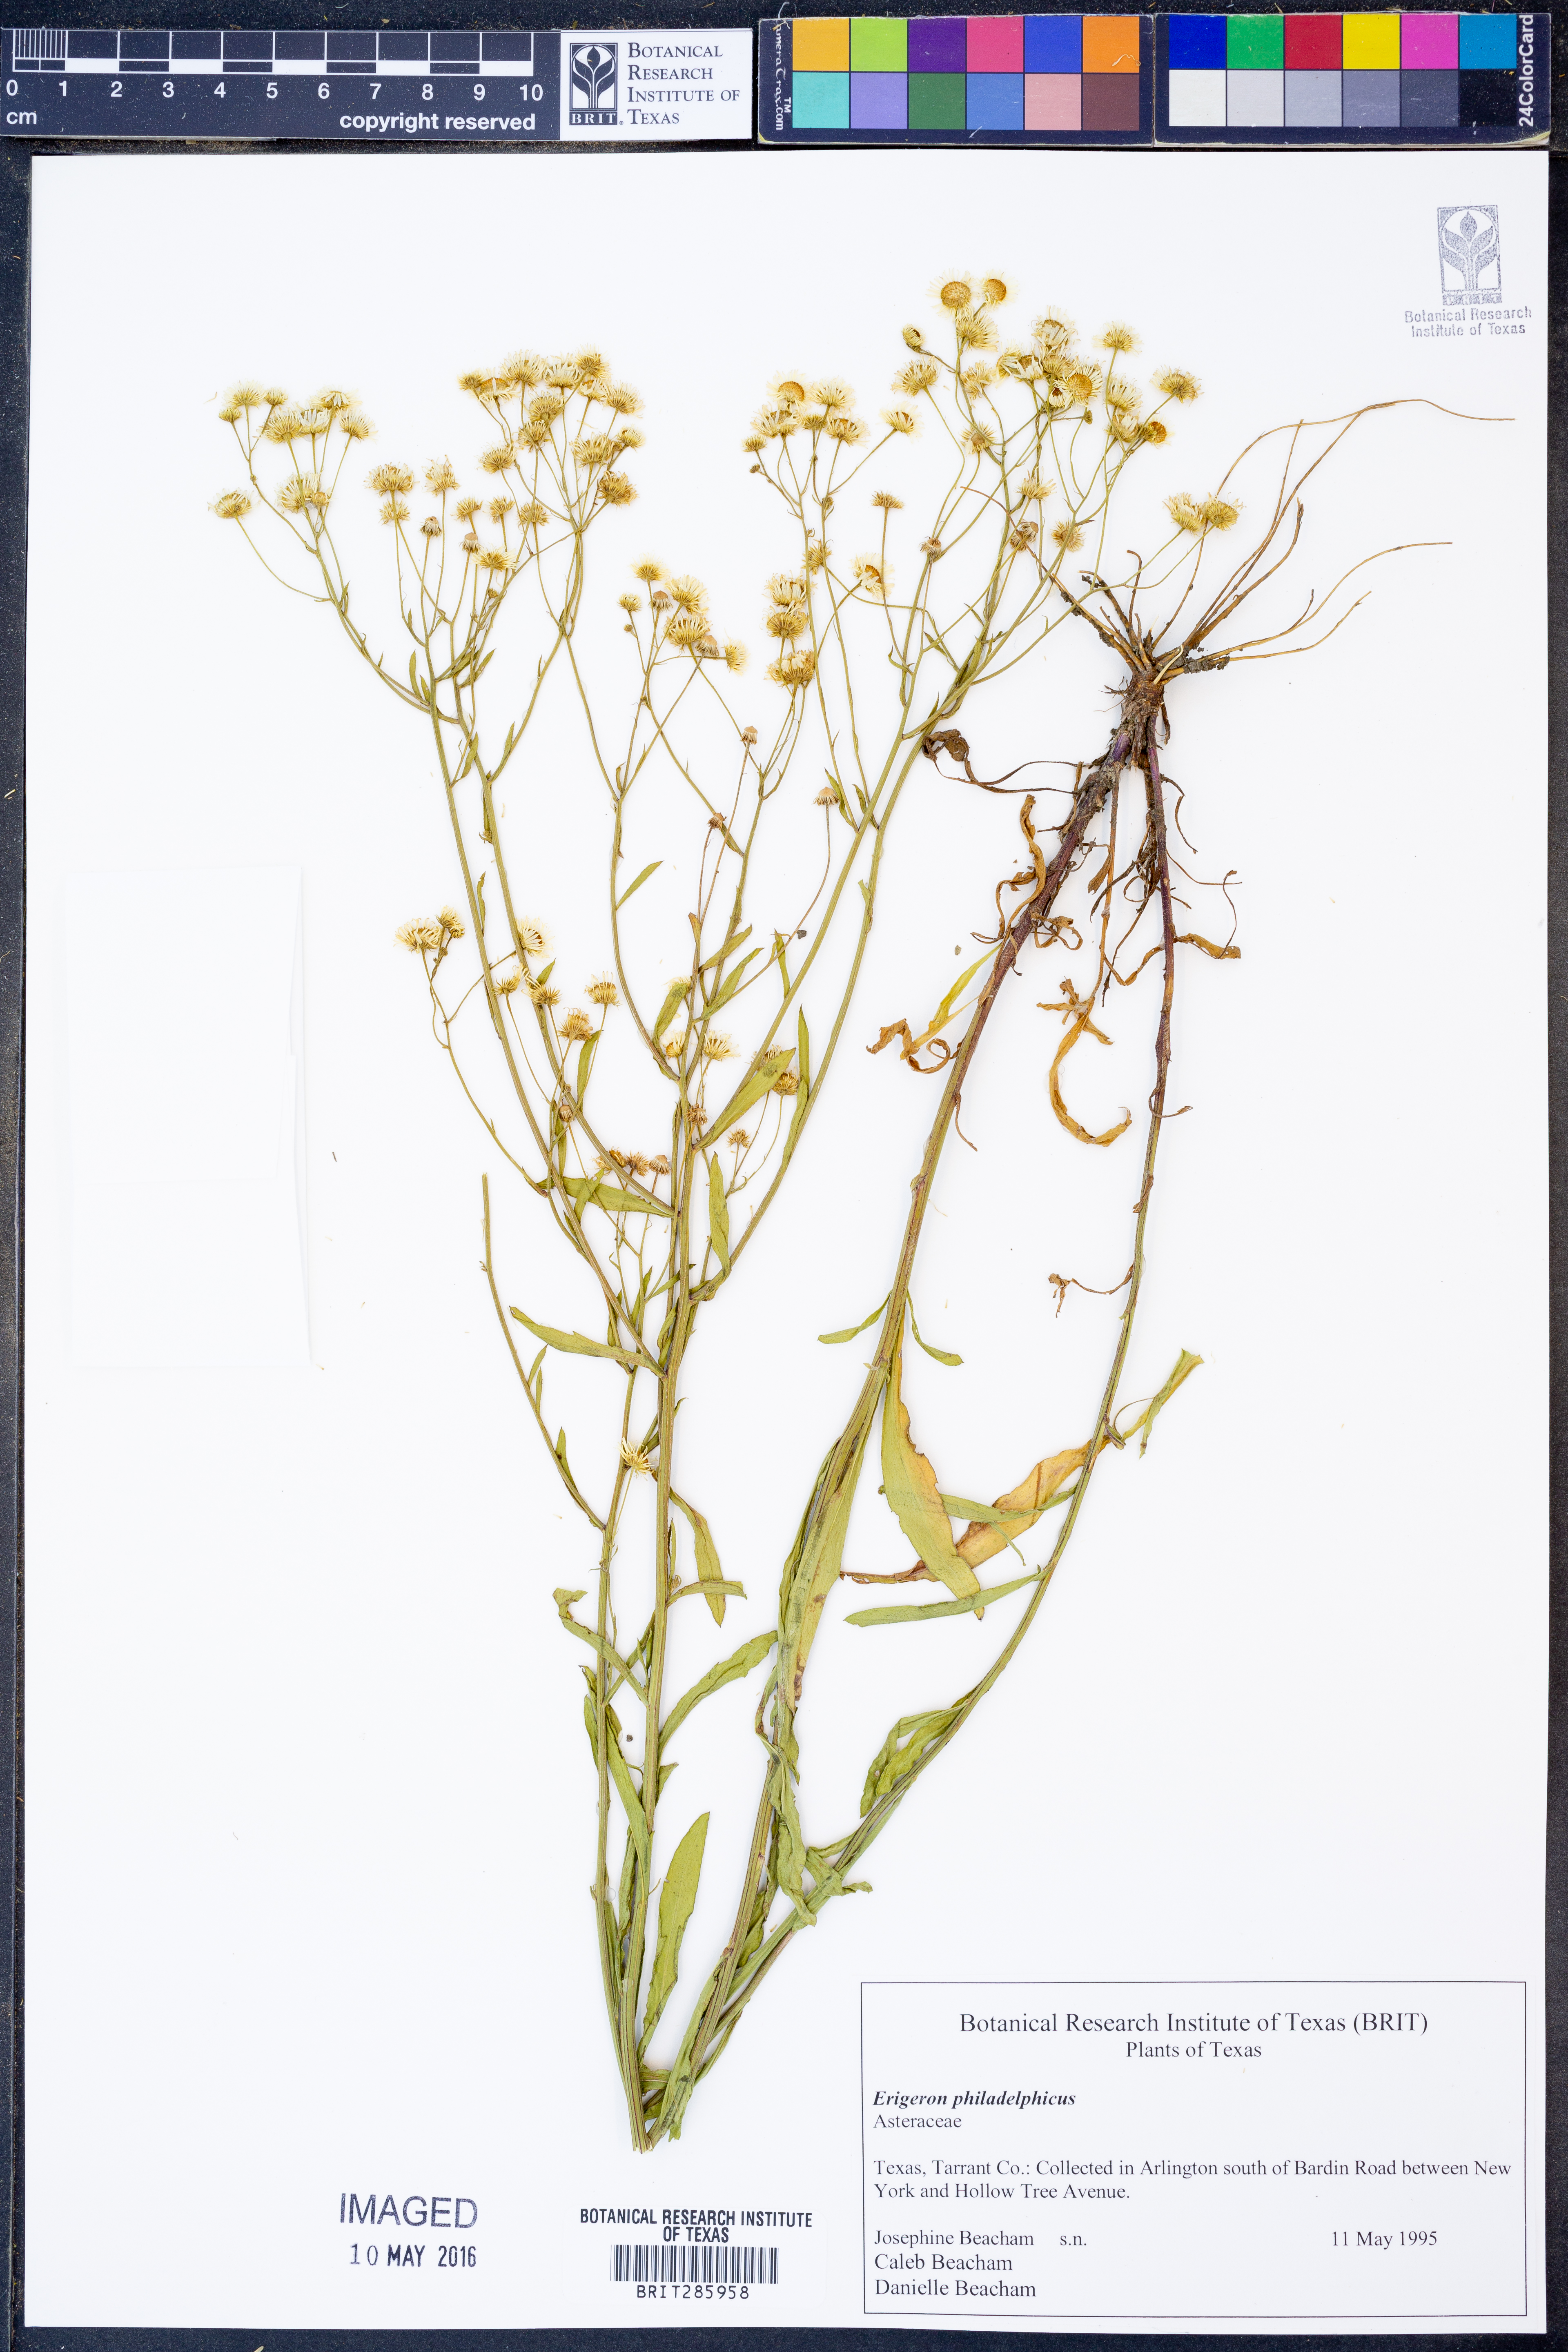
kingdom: Plantae
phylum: Tracheophyta
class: Magnoliopsida
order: Asterales
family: Asteraceae
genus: Erigeron
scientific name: Erigeron philadelphicus
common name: Robin's-plantain
